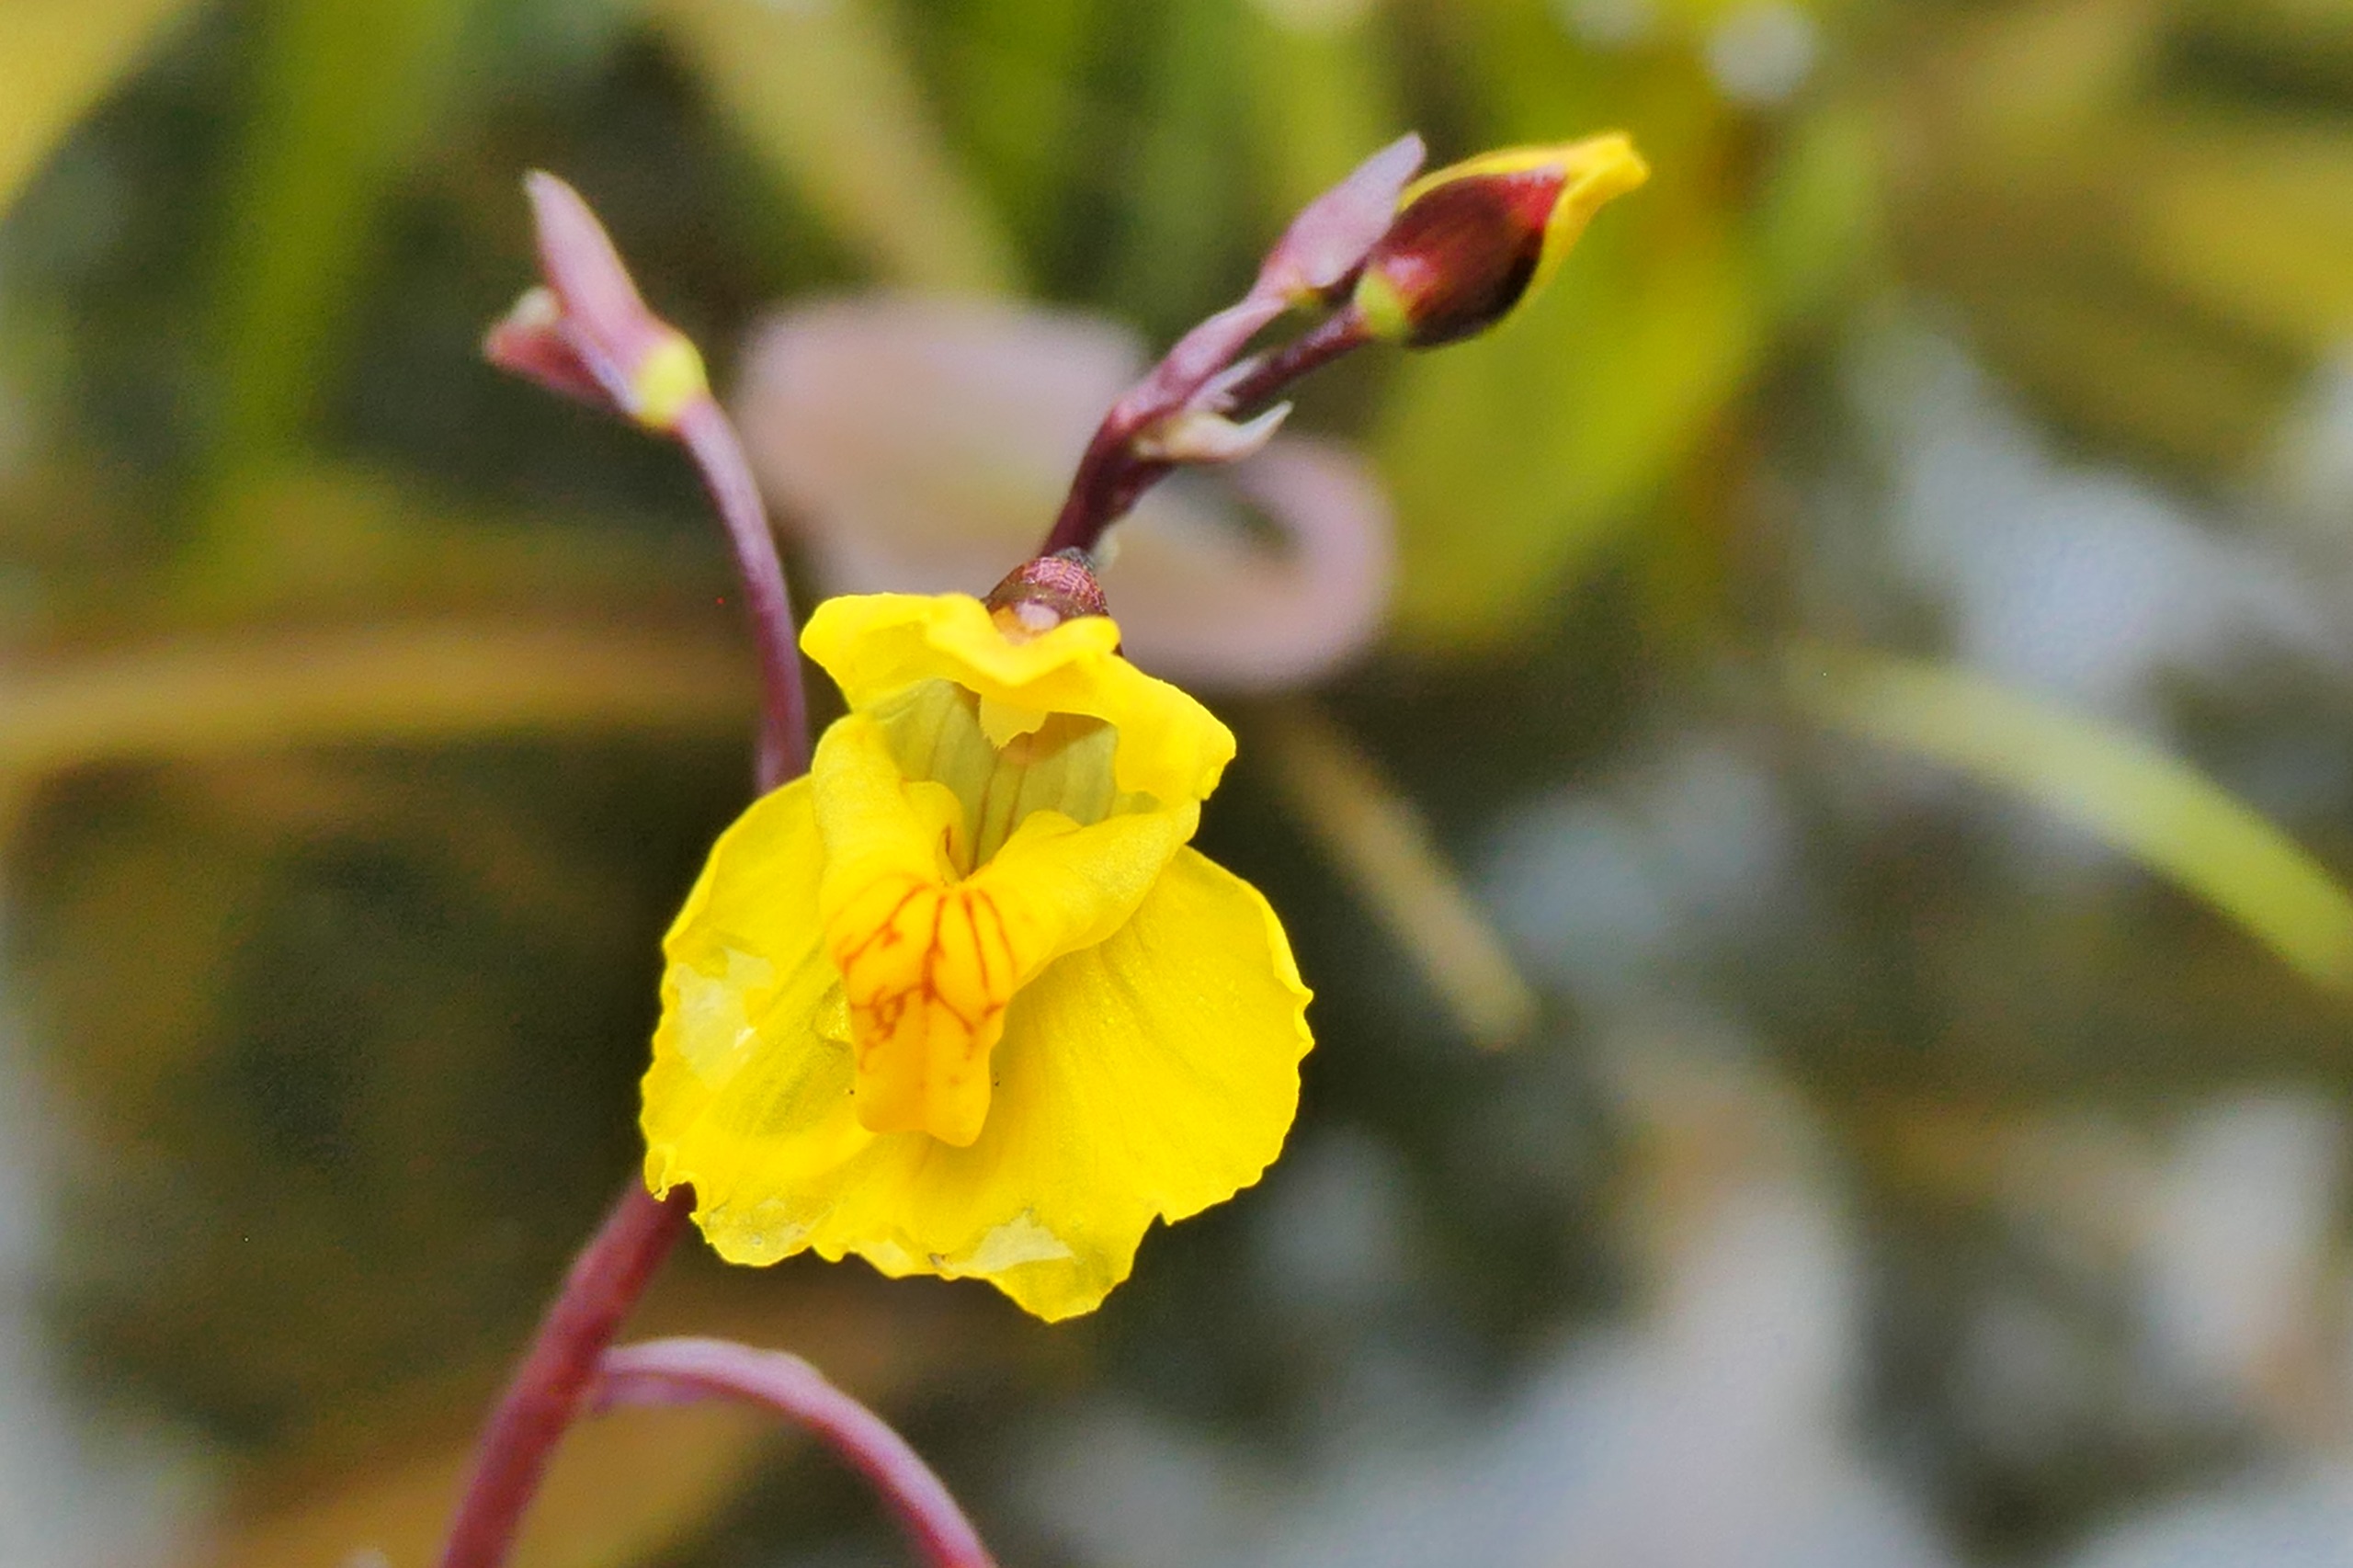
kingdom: Plantae
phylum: Tracheophyta
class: Magnoliopsida
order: Lamiales
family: Lentibulariaceae
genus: Utricularia
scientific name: Utricularia vulgaris
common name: Almindelig blærerod
